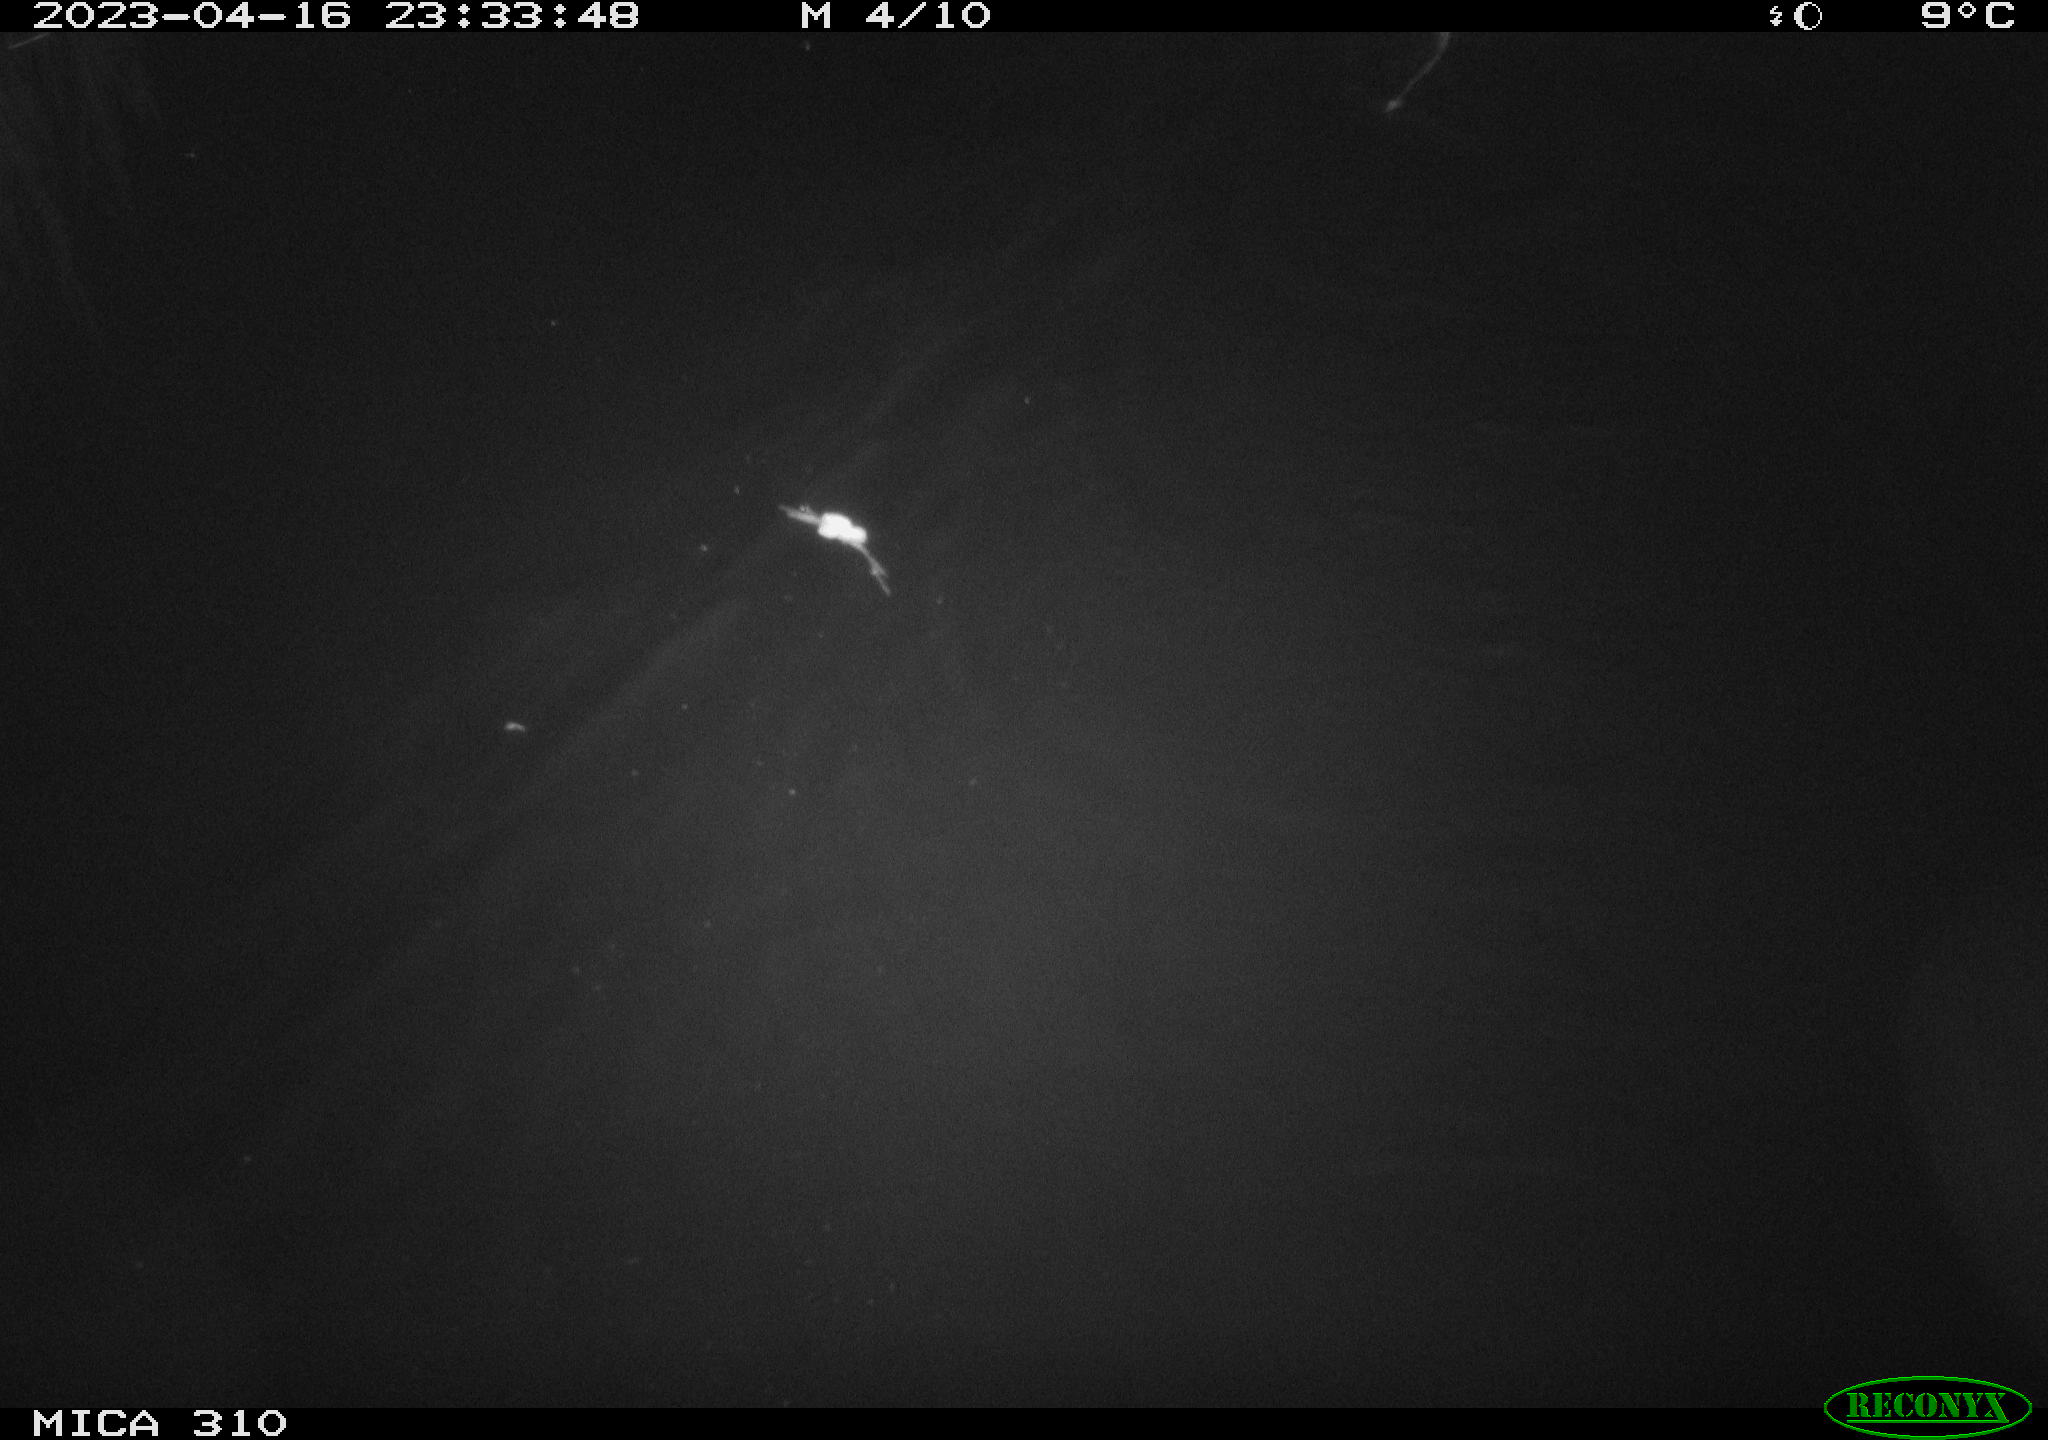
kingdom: Animalia
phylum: Chordata
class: Mammalia
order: Rodentia
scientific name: Rodentia
